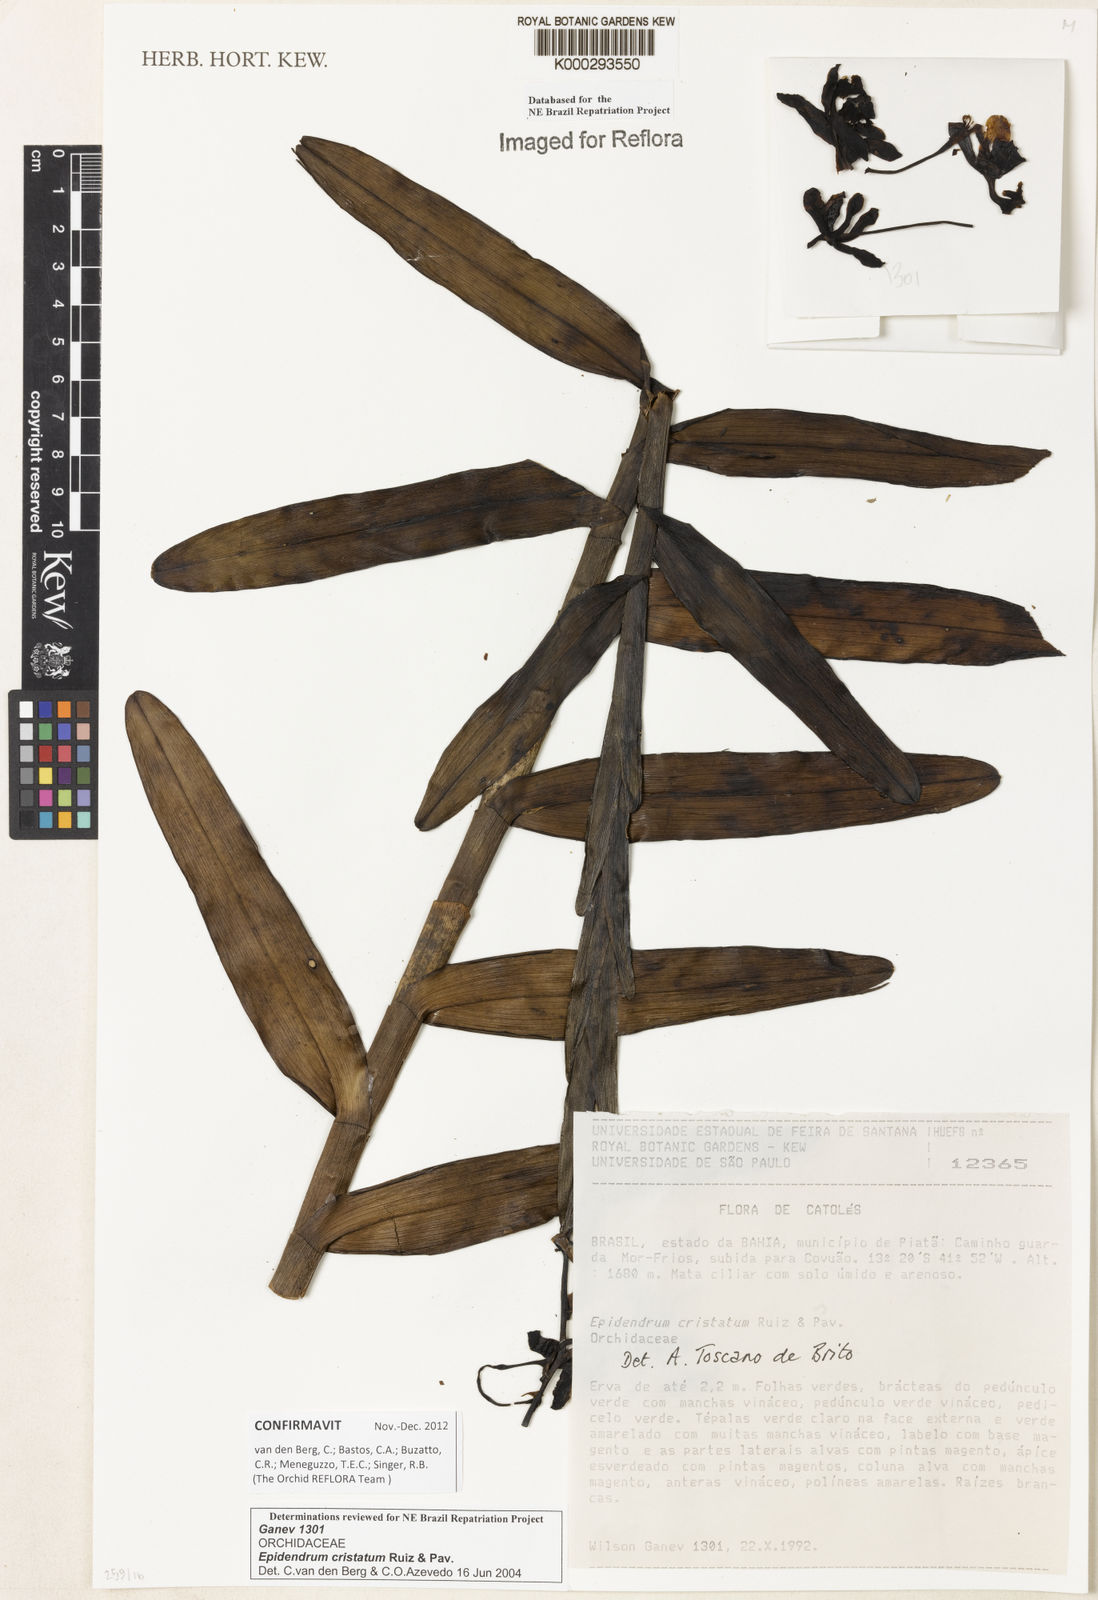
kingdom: Plantae
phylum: Tracheophyta
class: Liliopsida
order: Asparagales
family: Orchidaceae
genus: Epidendrum
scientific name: Epidendrum cristatum
